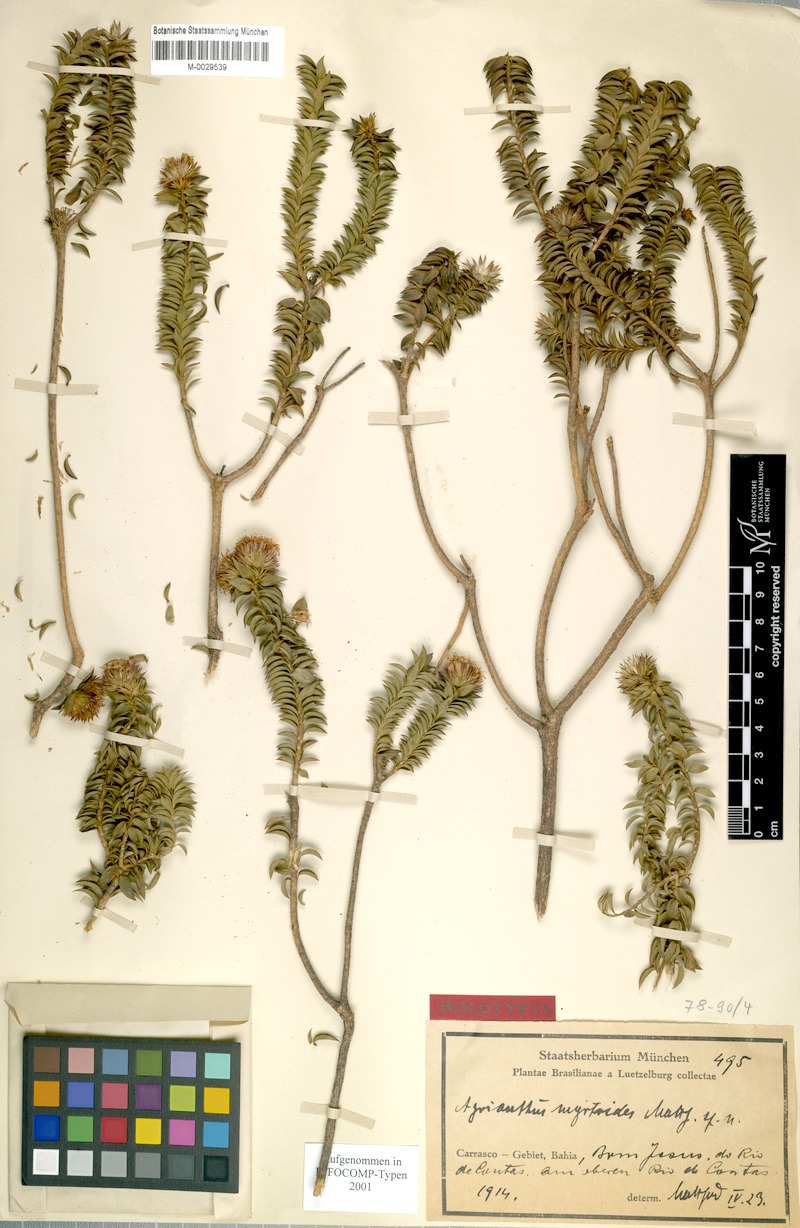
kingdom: Plantae
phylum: Tracheophyta
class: Magnoliopsida
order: Asterales
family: Asteraceae
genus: Agrianthus
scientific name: Agrianthus myrtoides
